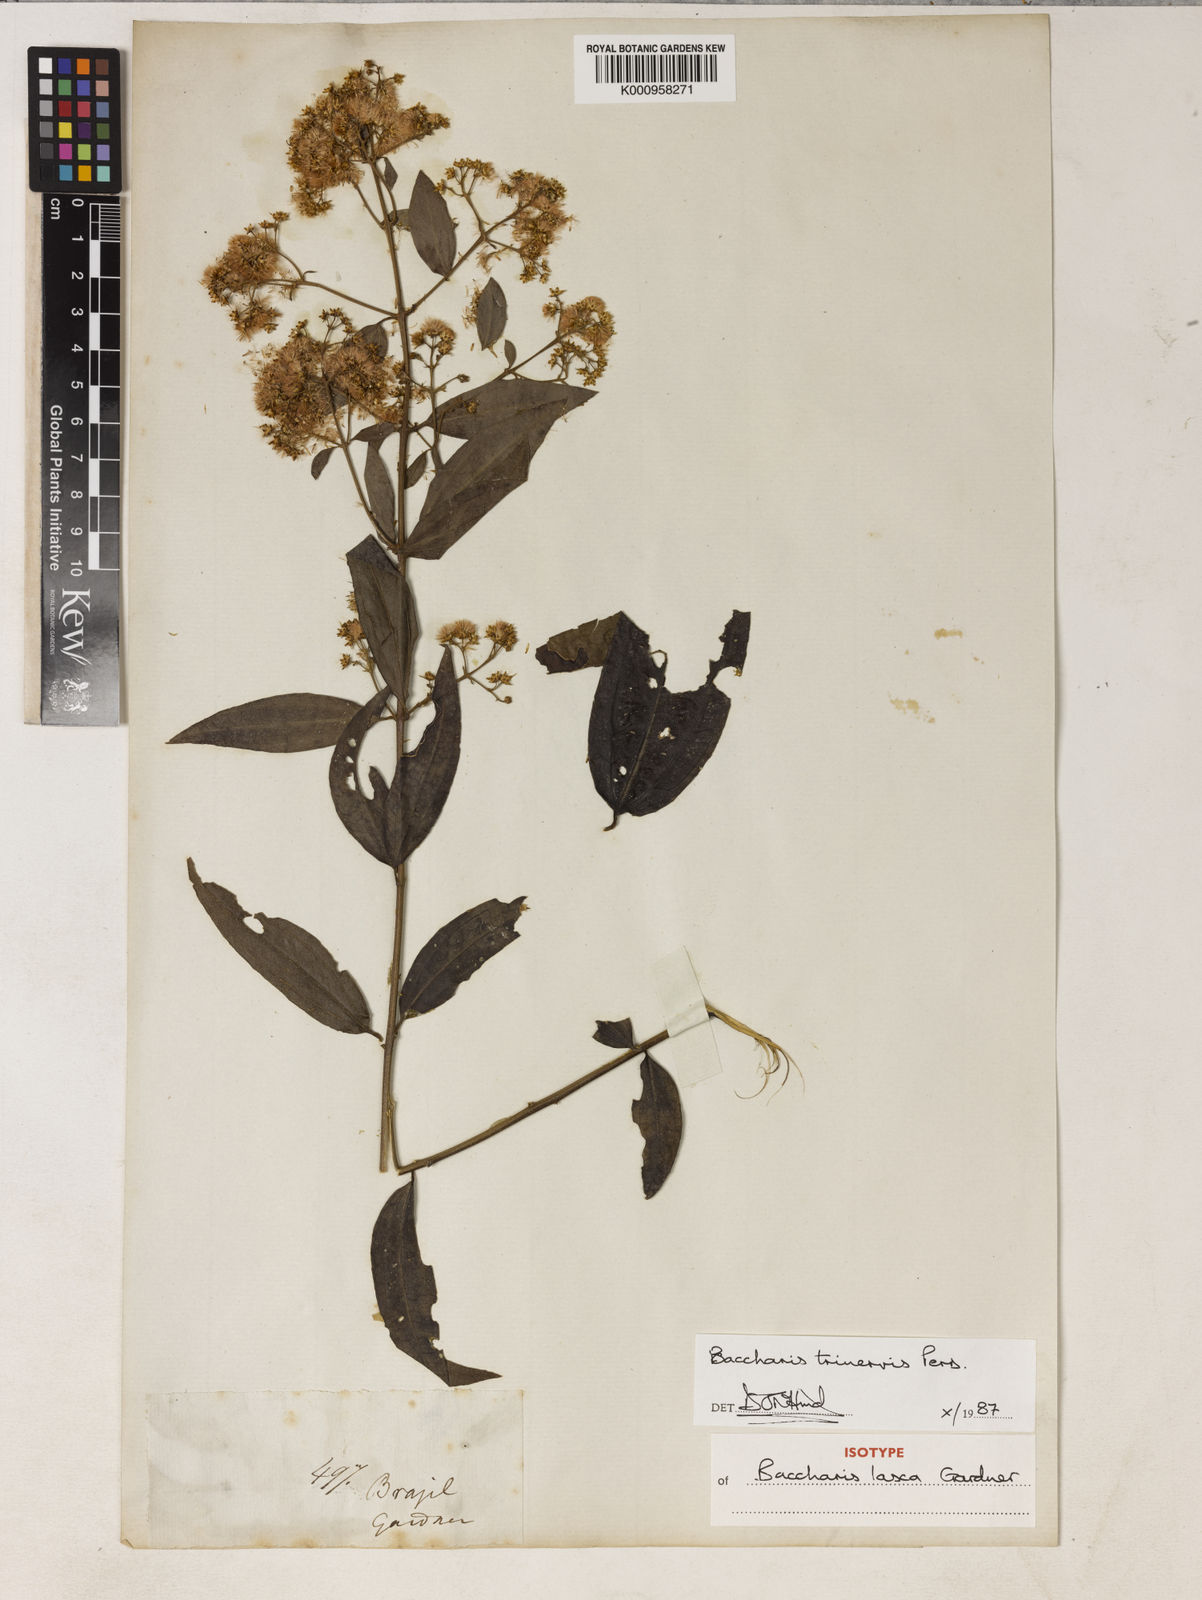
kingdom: Plantae
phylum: Tracheophyta
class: Magnoliopsida
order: Asterales
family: Asteraceae
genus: Baccharis
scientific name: Baccharis trinervis
